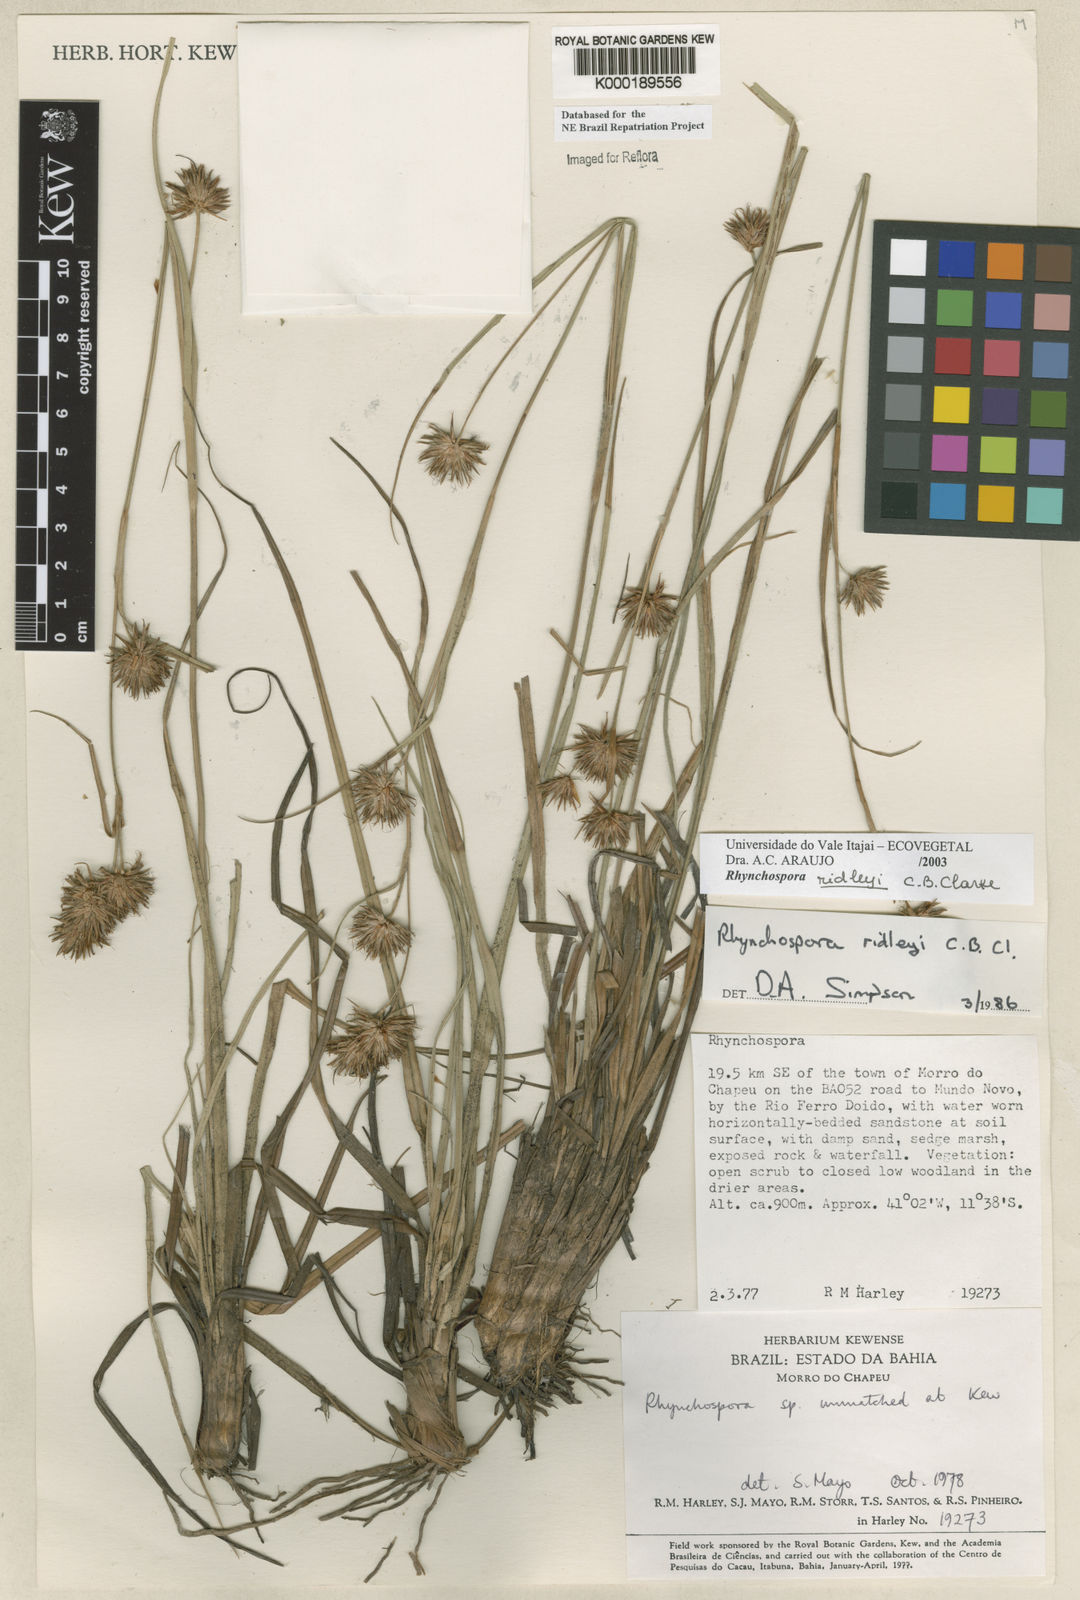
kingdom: Plantae
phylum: Tracheophyta
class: Liliopsida
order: Poales
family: Cyperaceae
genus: Rhynchospora
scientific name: Rhynchospora ridleyi
